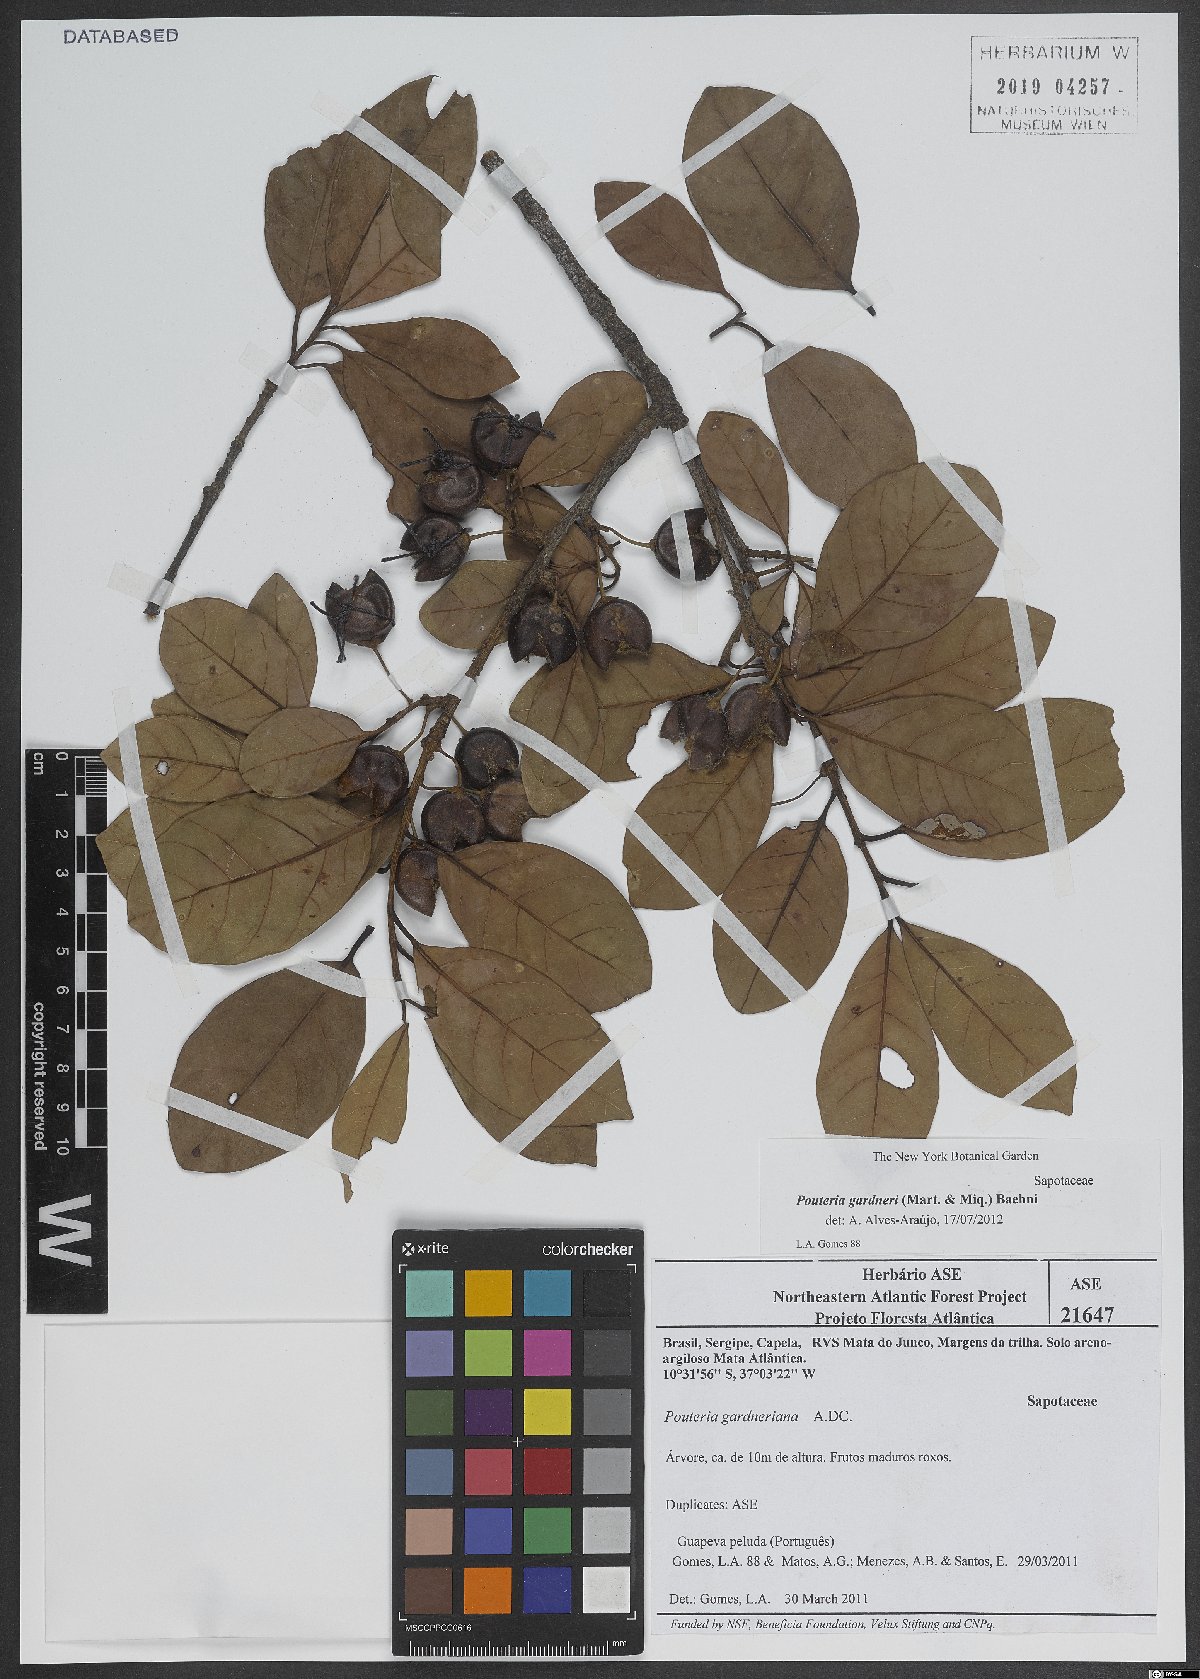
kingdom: Plantae
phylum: Tracheophyta
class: Magnoliopsida
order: Ericales
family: Sapotaceae
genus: Pouteria
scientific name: Pouteria gardneri
